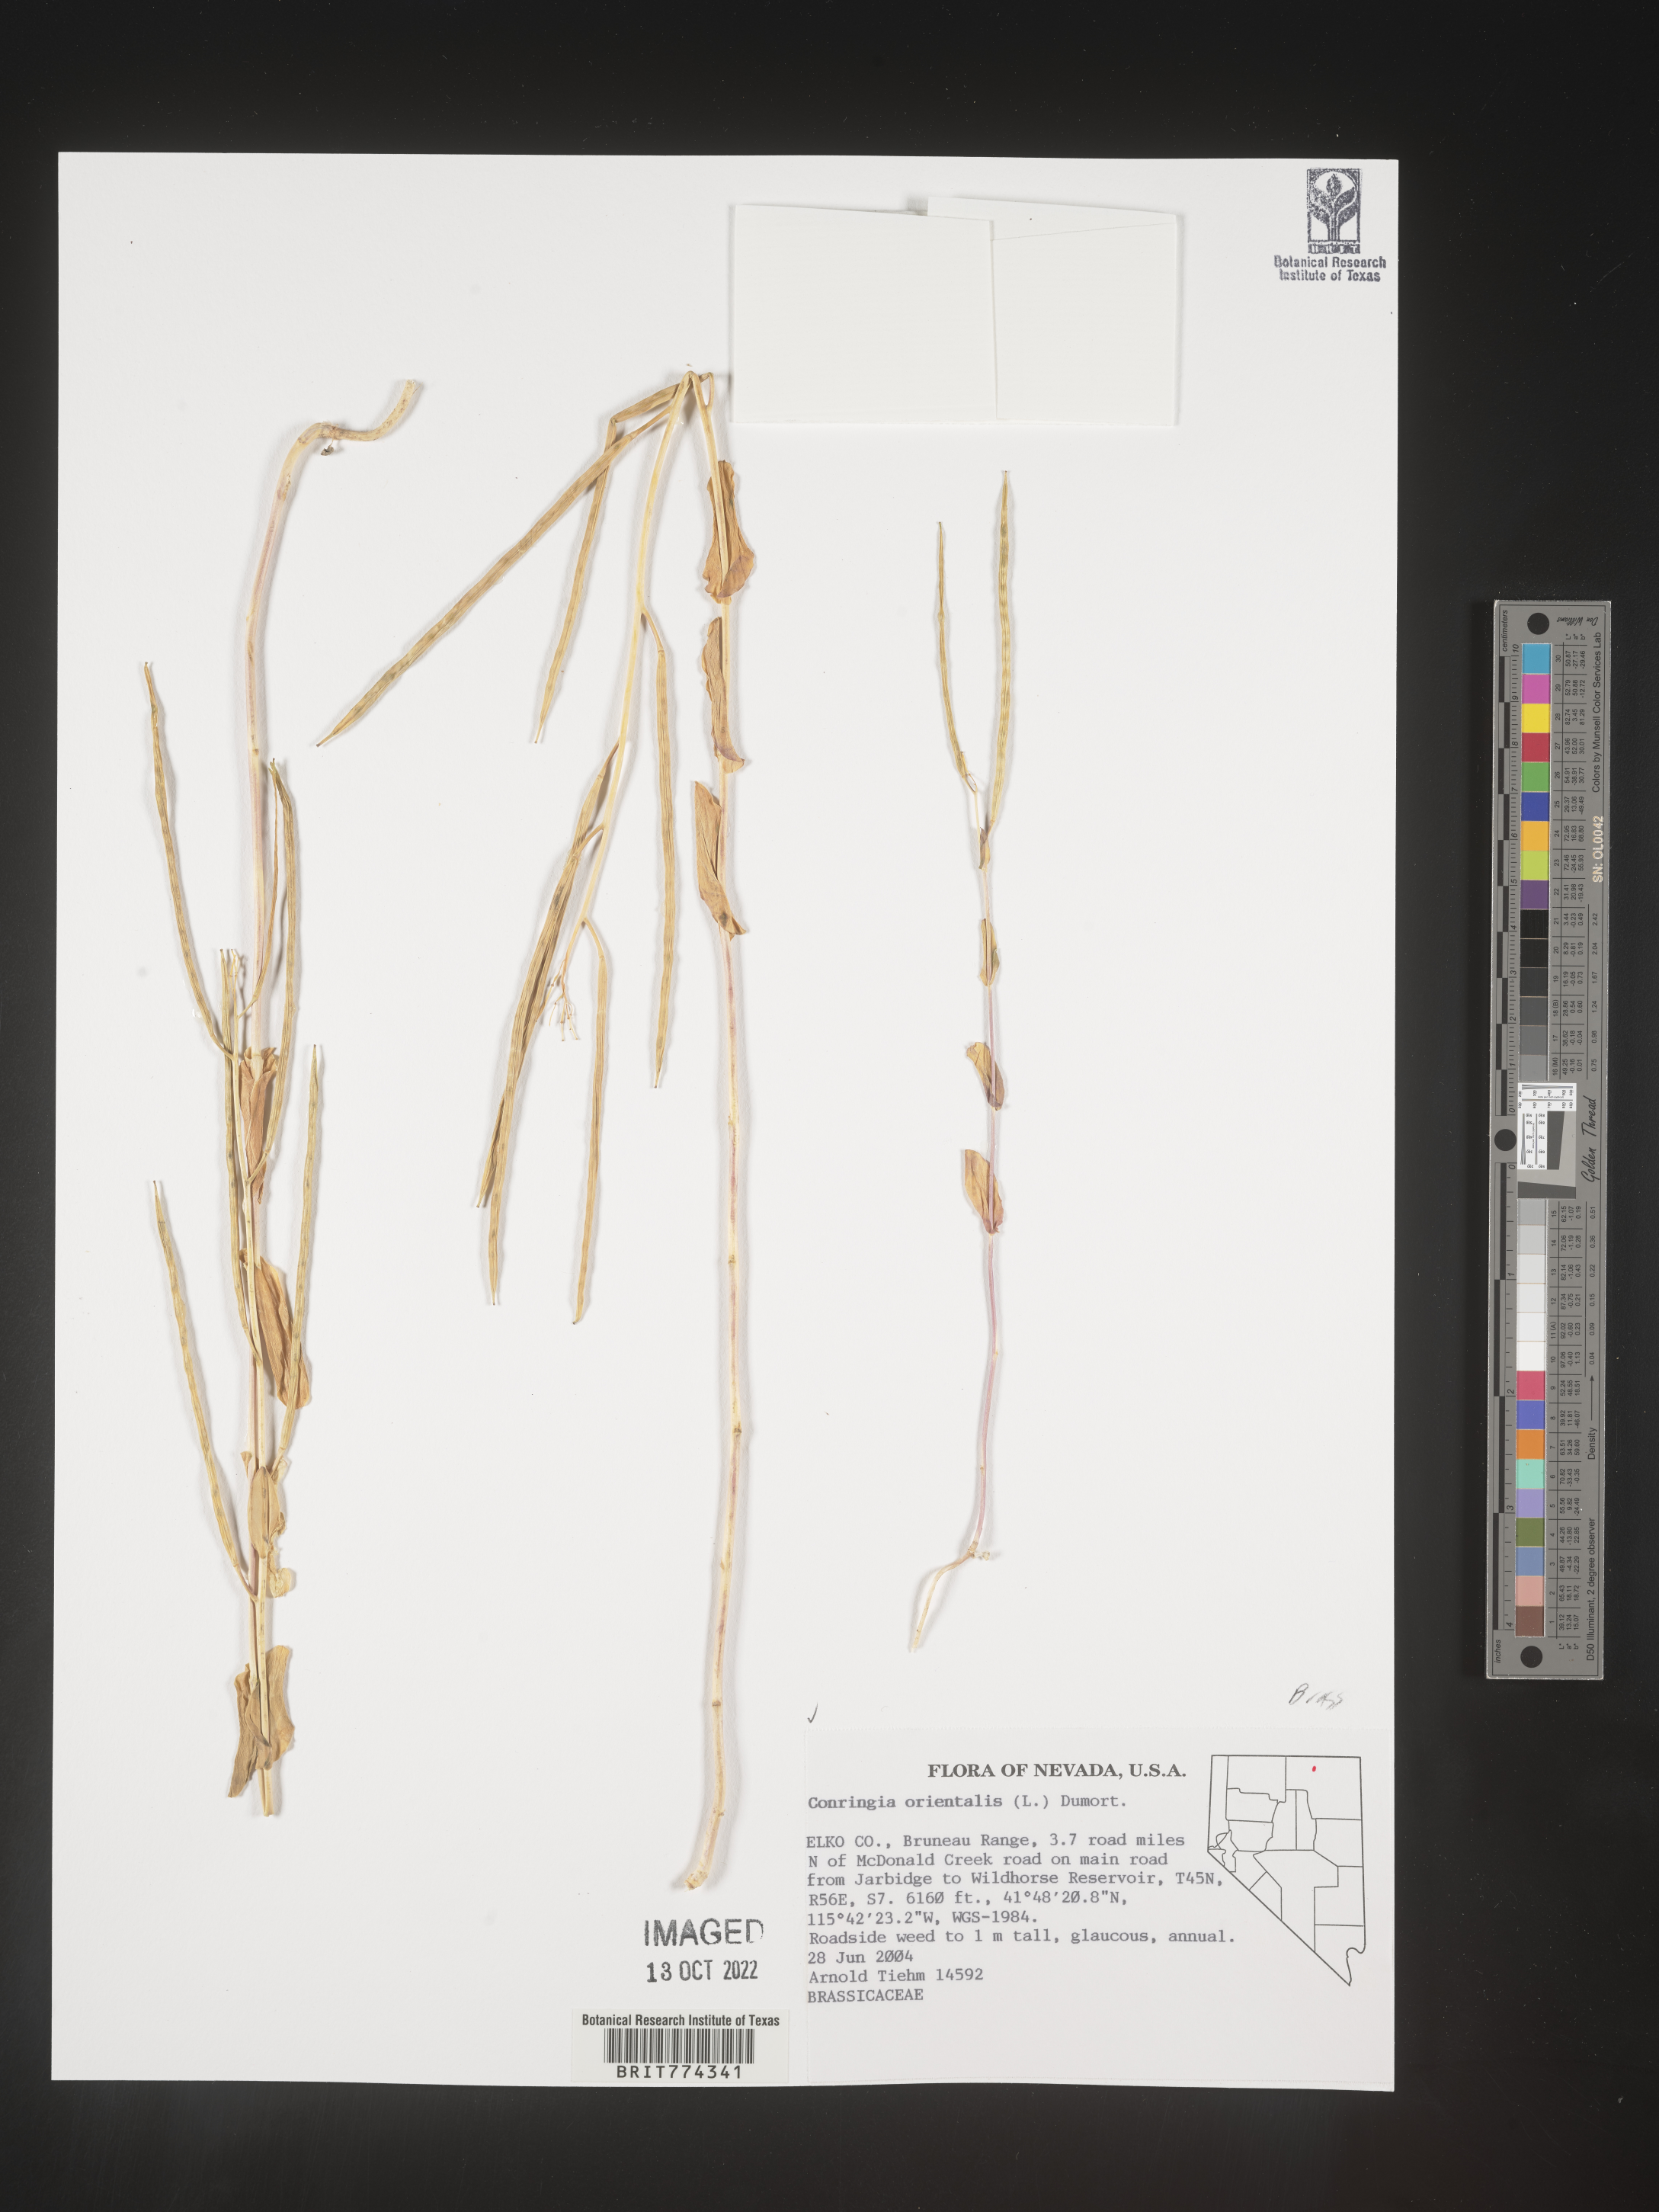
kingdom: Plantae
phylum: Tracheophyta
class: Magnoliopsida
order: Brassicales
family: Brassicaceae
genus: Conringia
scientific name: Conringia
